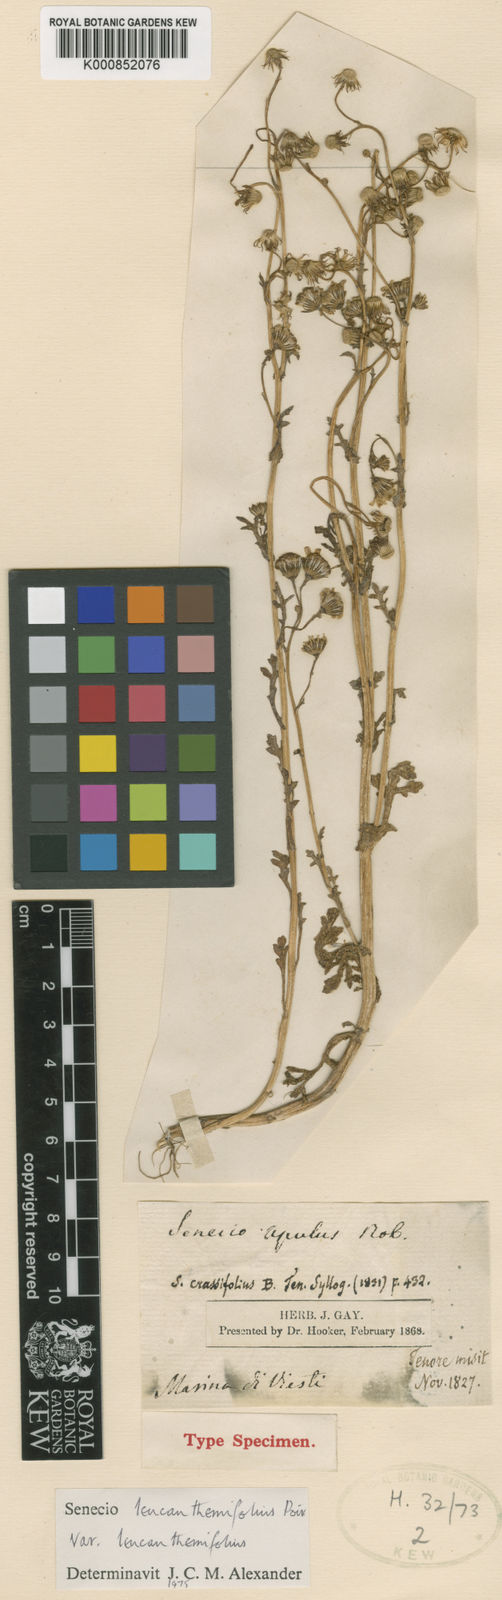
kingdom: Plantae
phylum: Tracheophyta
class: Magnoliopsida
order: Asterales
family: Asteraceae
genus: Senecio
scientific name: Senecio leucanthemifolius
